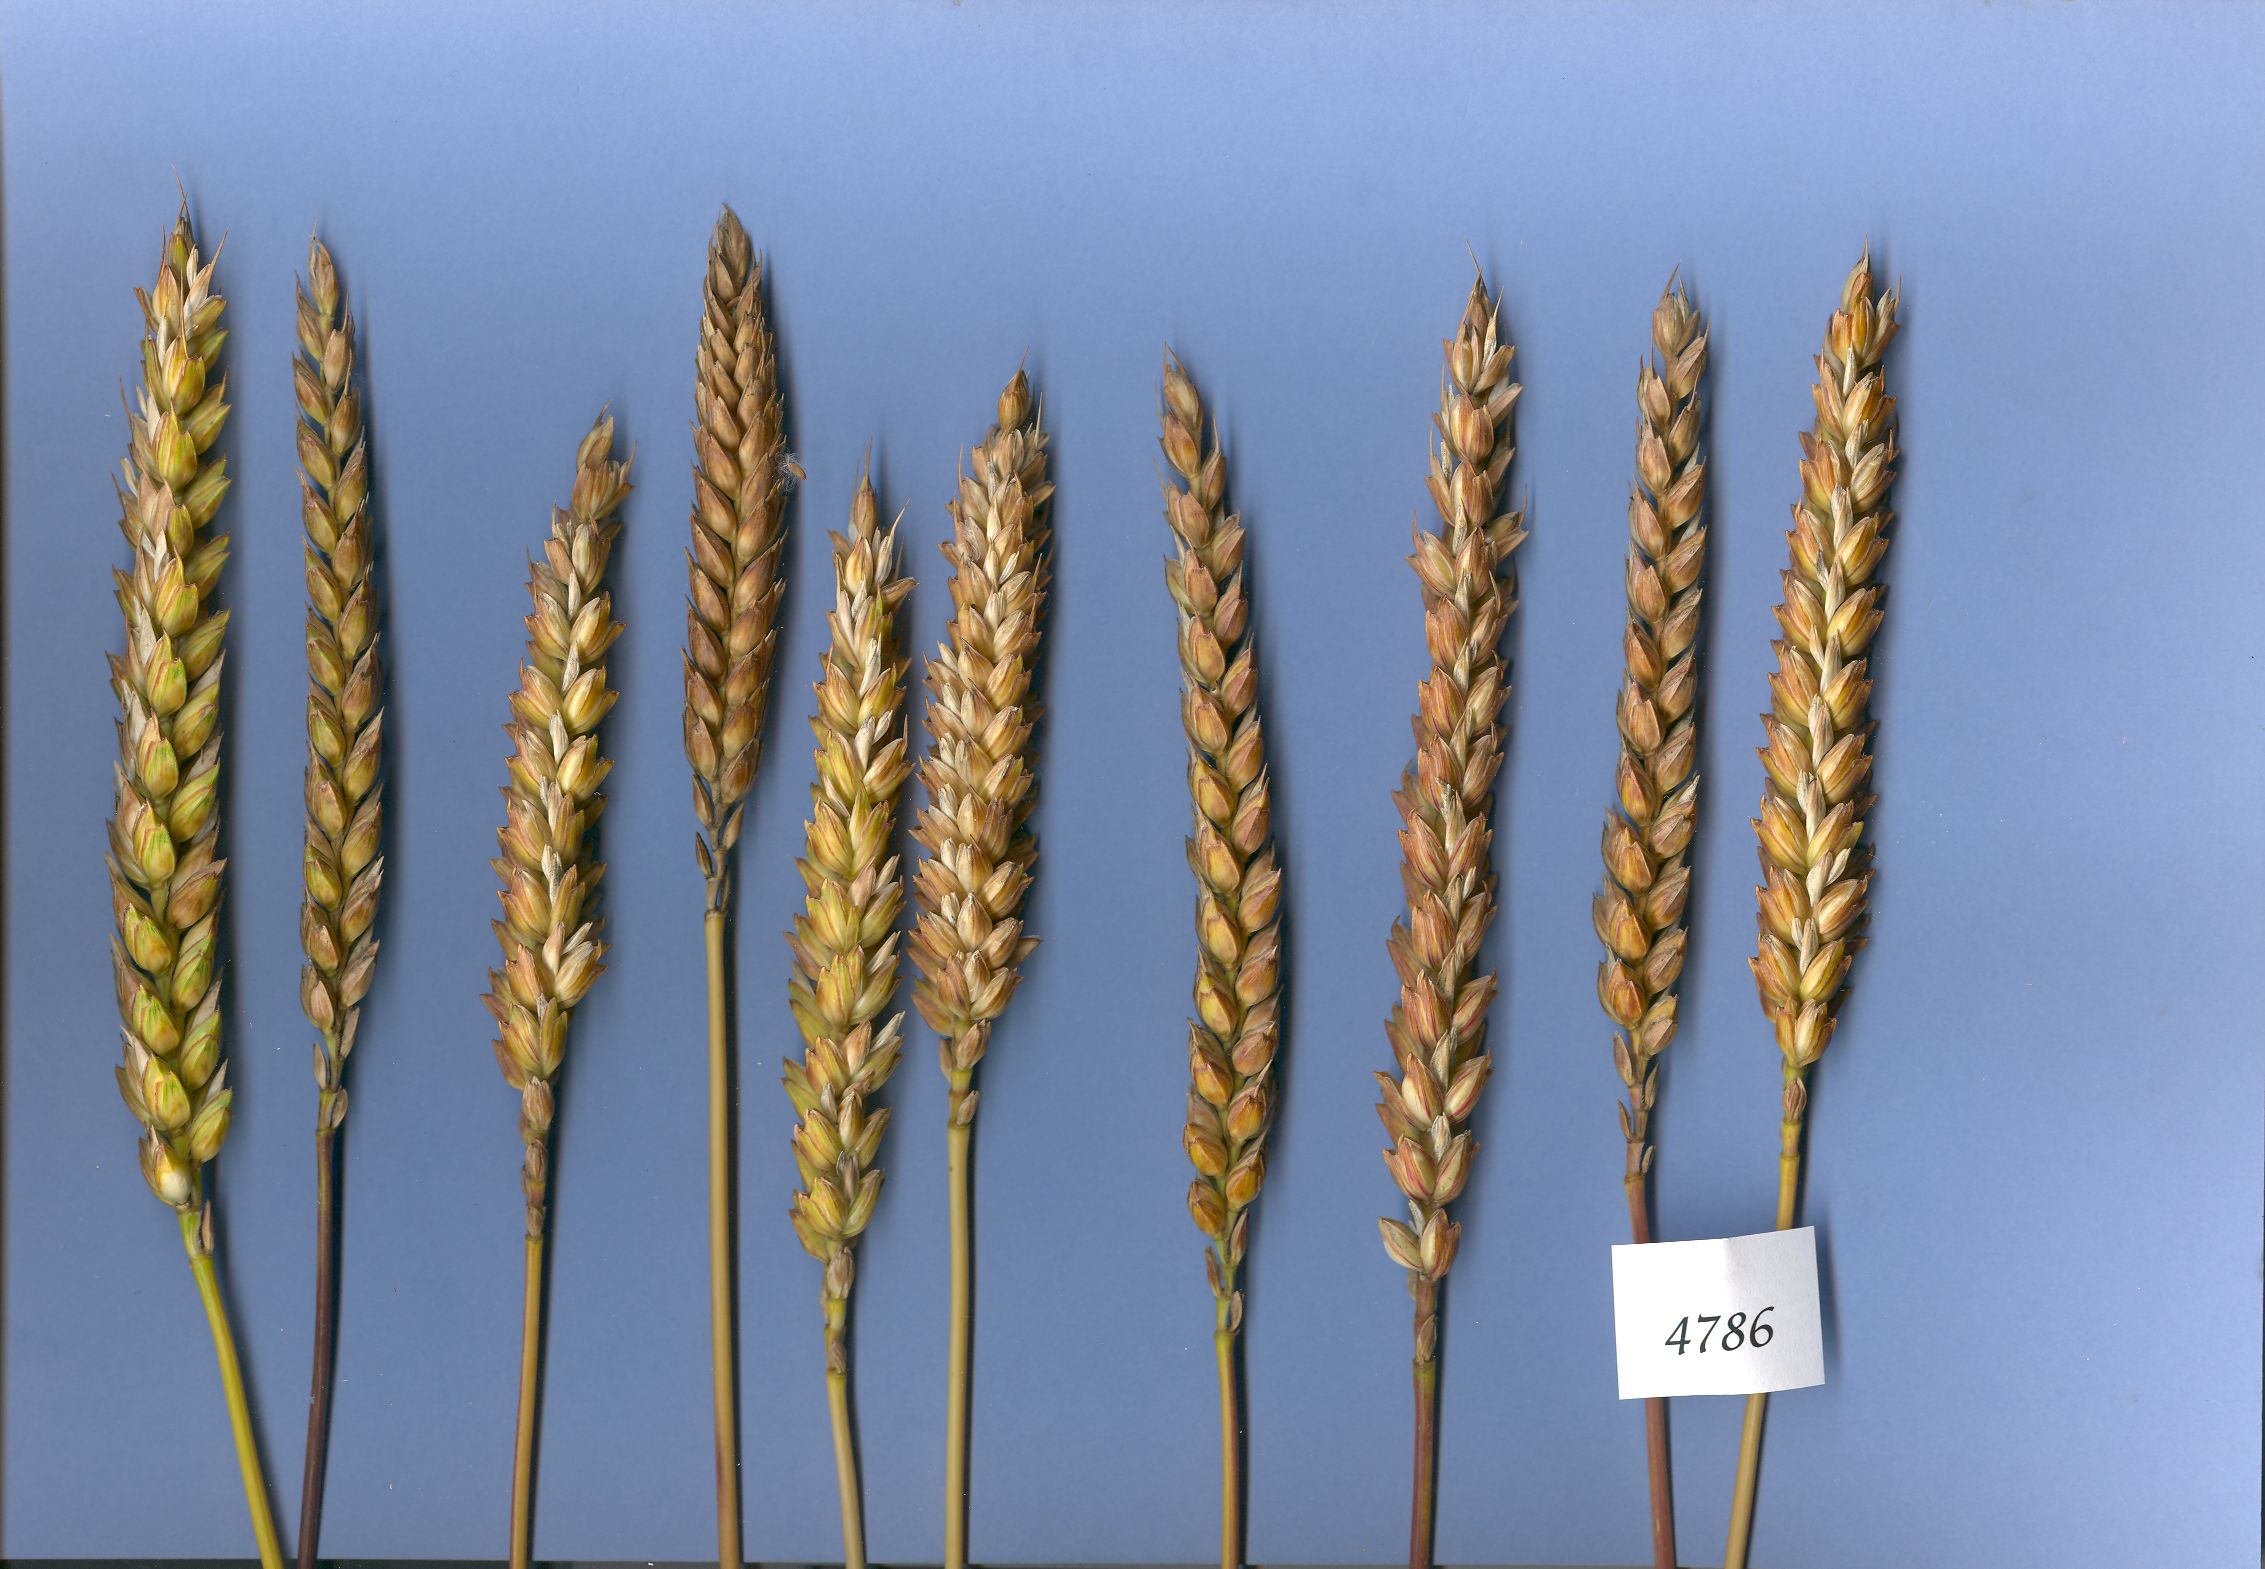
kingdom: Plantae
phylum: Tracheophyta
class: Liliopsida
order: Poales
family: Poaceae
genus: Triticum
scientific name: Triticum aestivum
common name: Common wheat
